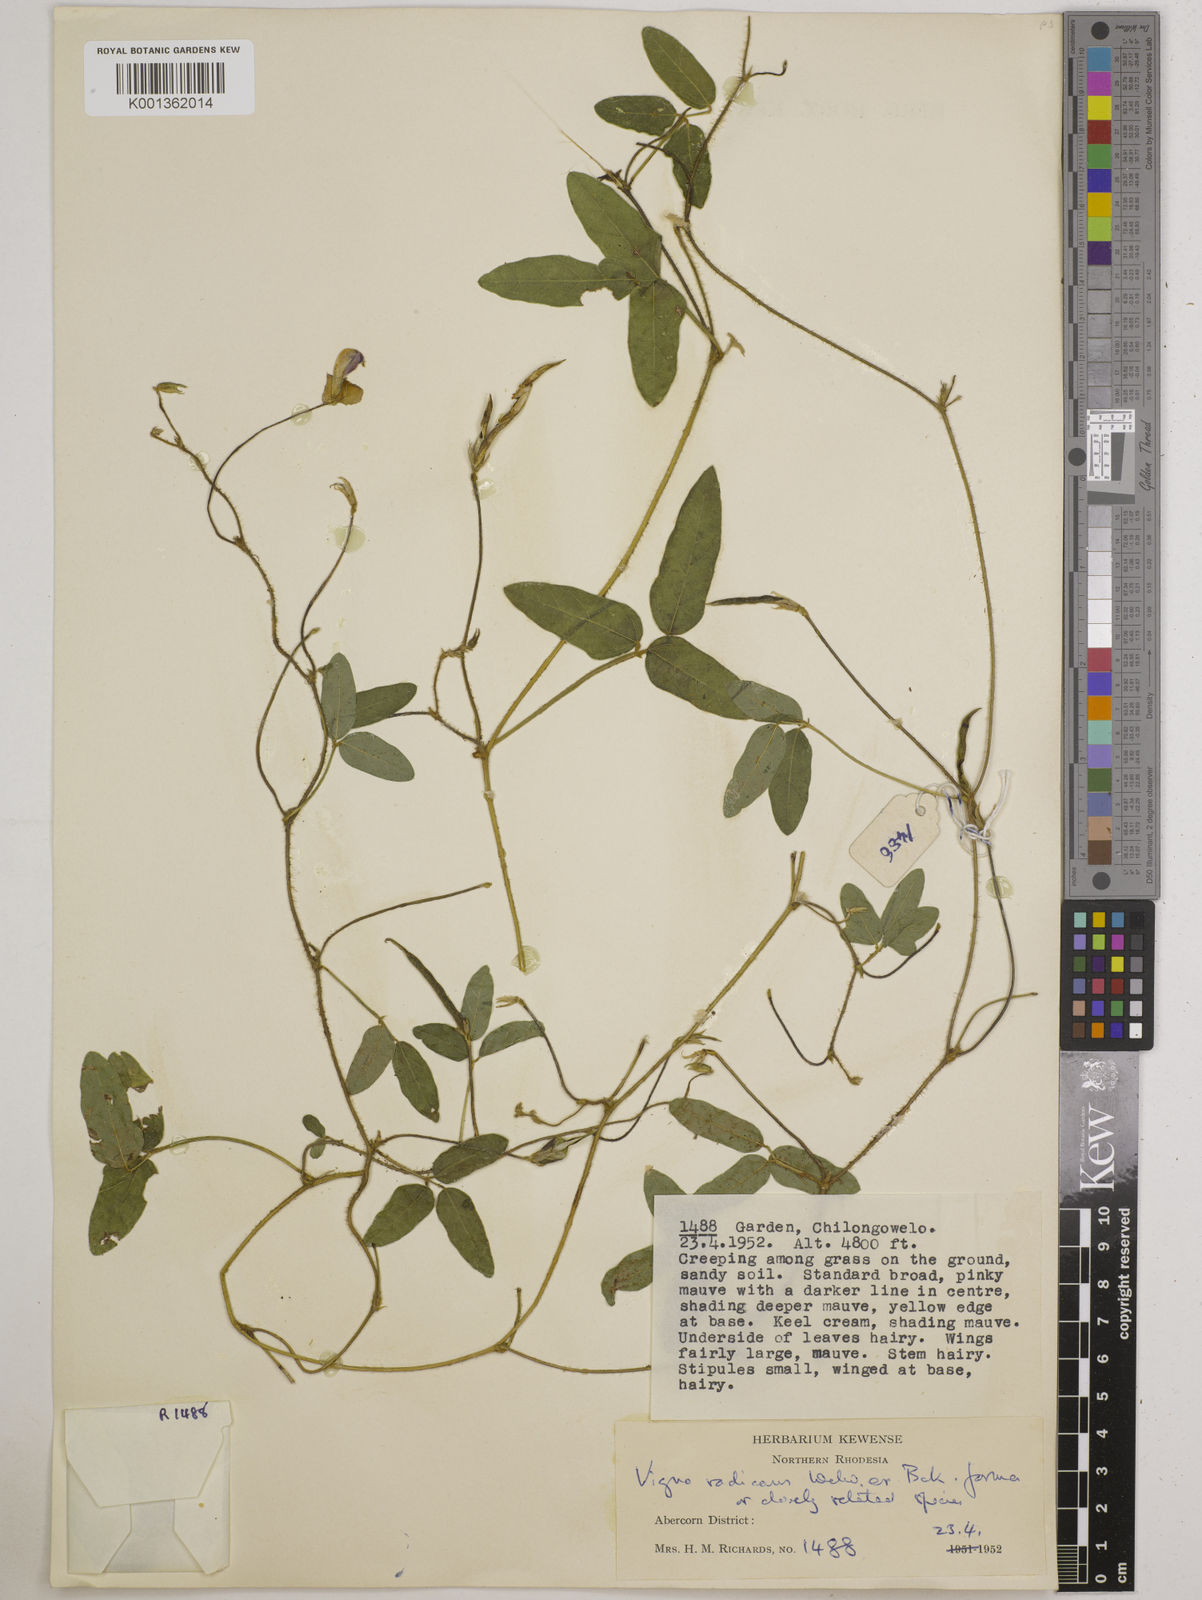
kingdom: Plantae
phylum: Tracheophyta
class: Magnoliopsida
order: Fabales
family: Fabaceae
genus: Vigna
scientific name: Vigna radicans
